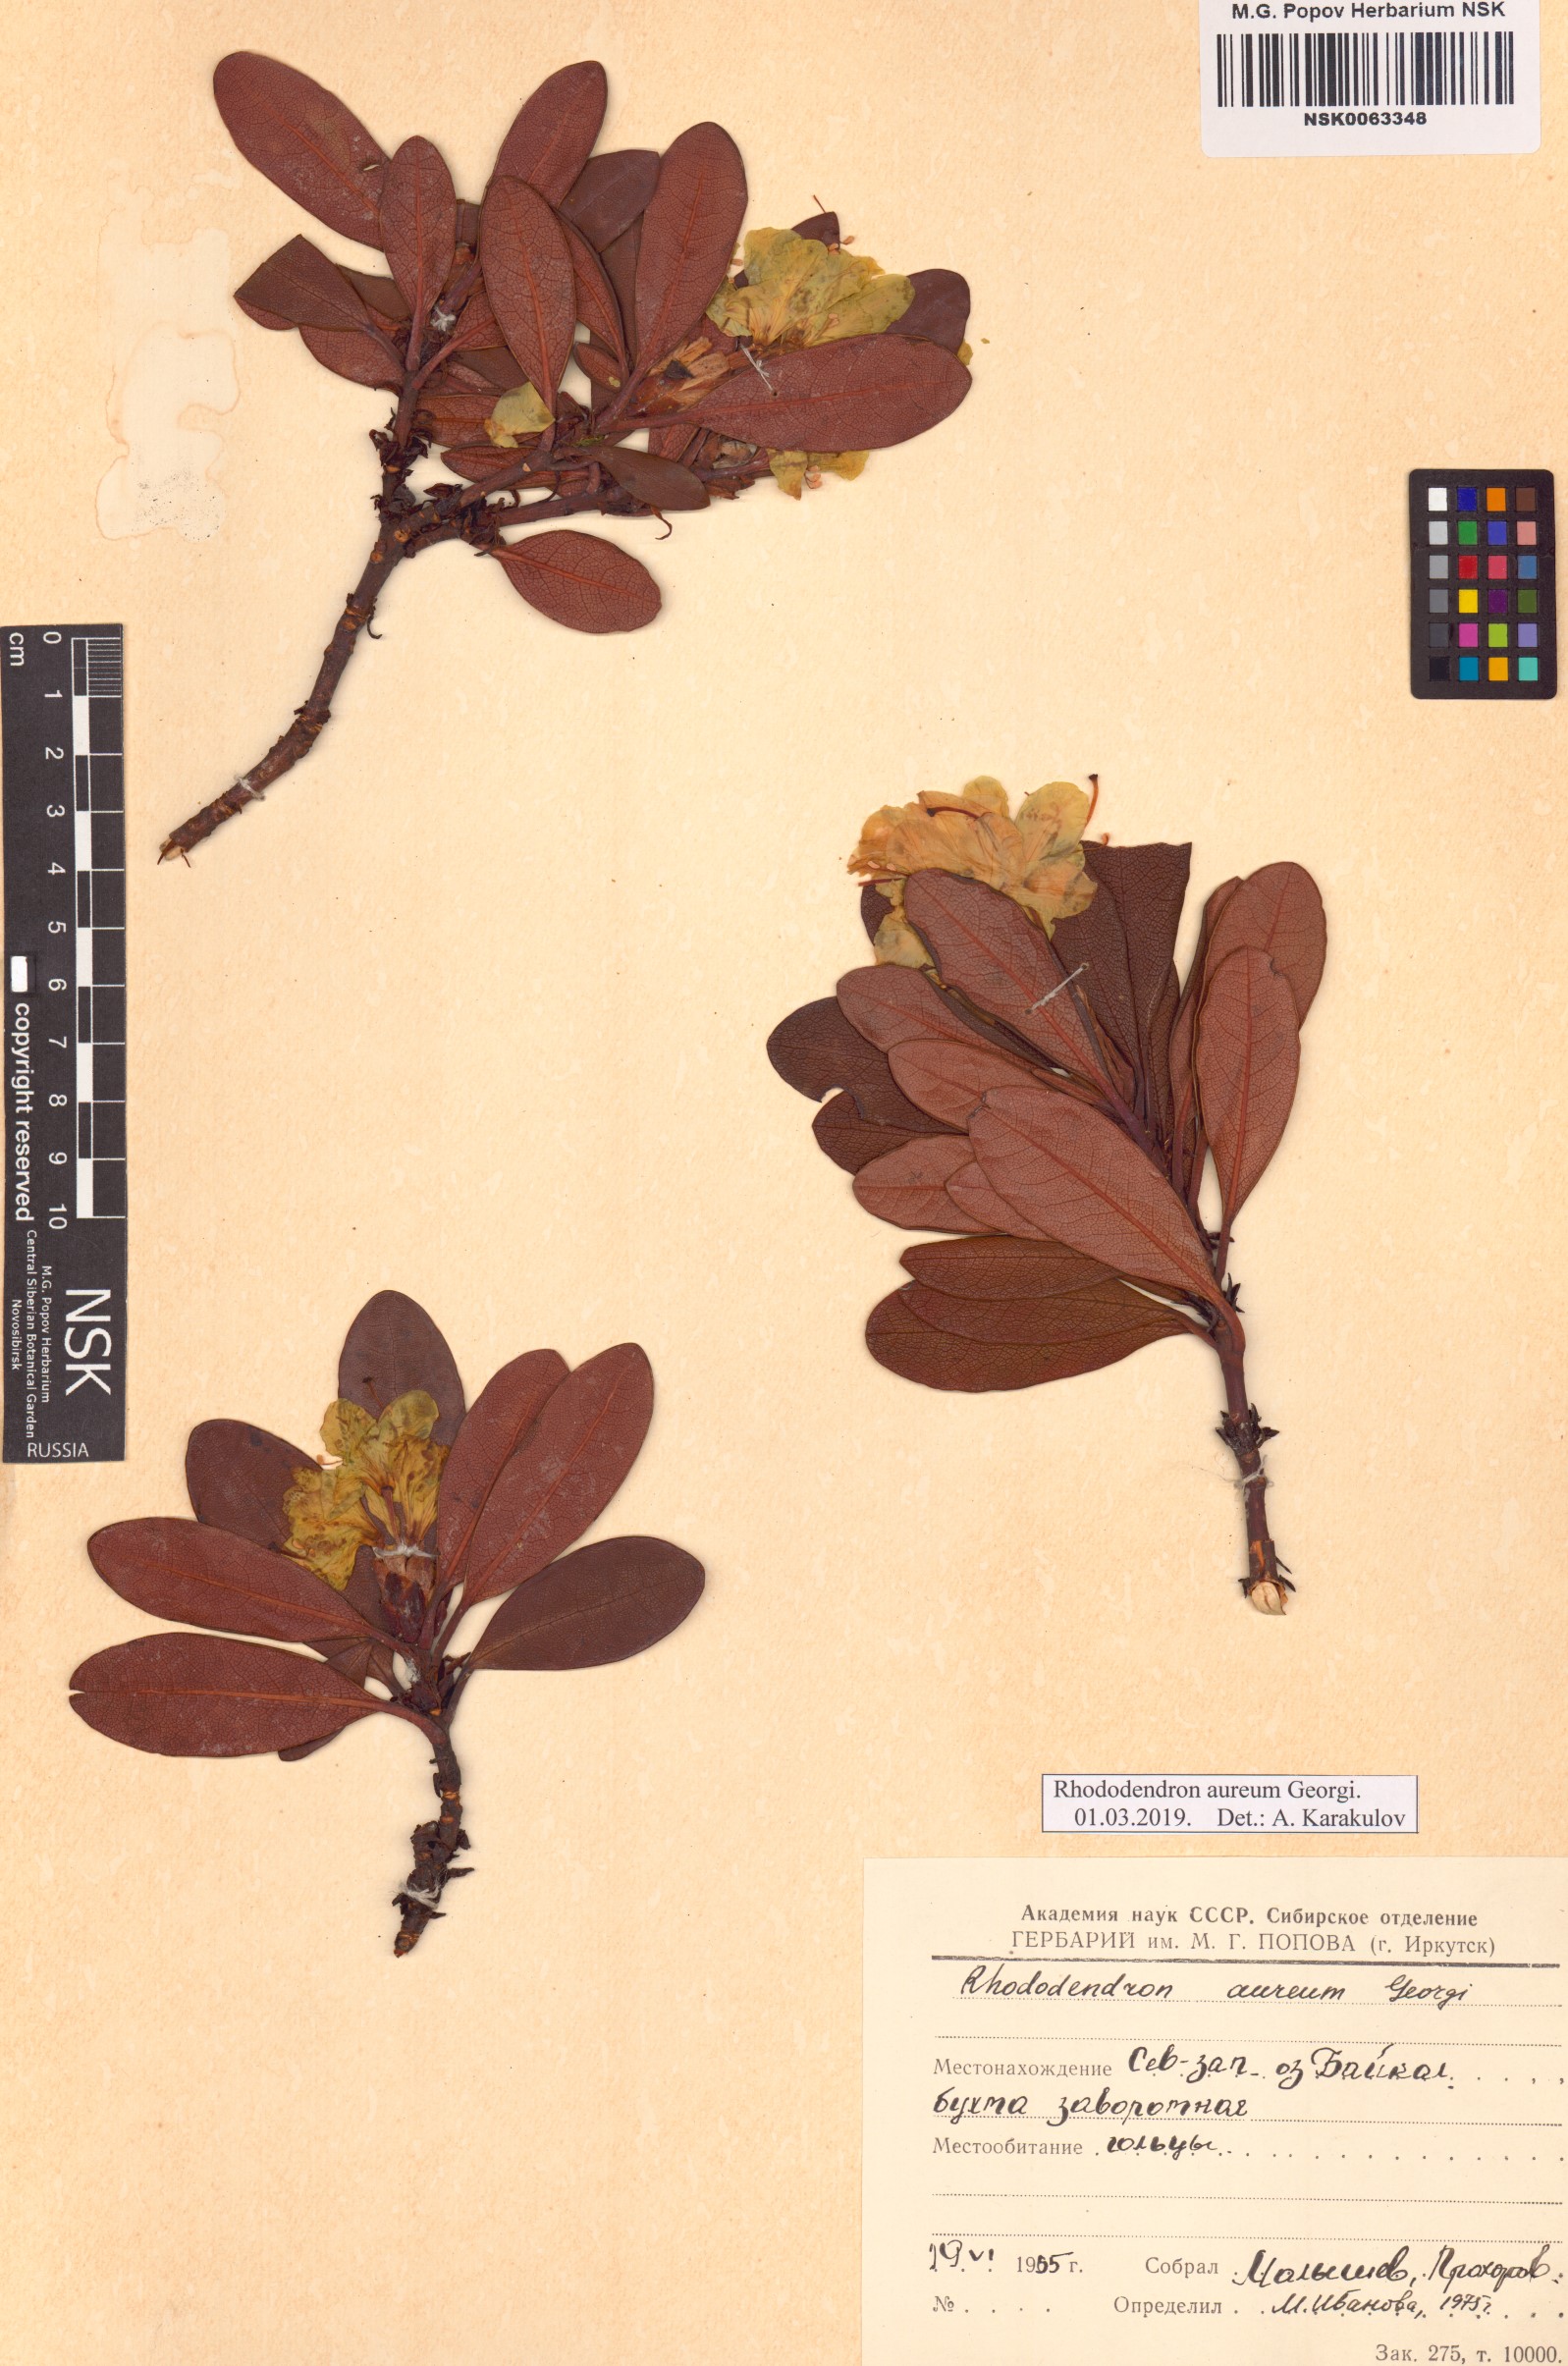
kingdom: Plantae
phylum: Tracheophyta
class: Magnoliopsida
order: Ericales
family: Ericaceae
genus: Rhododendron
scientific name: Rhododendron aureum
